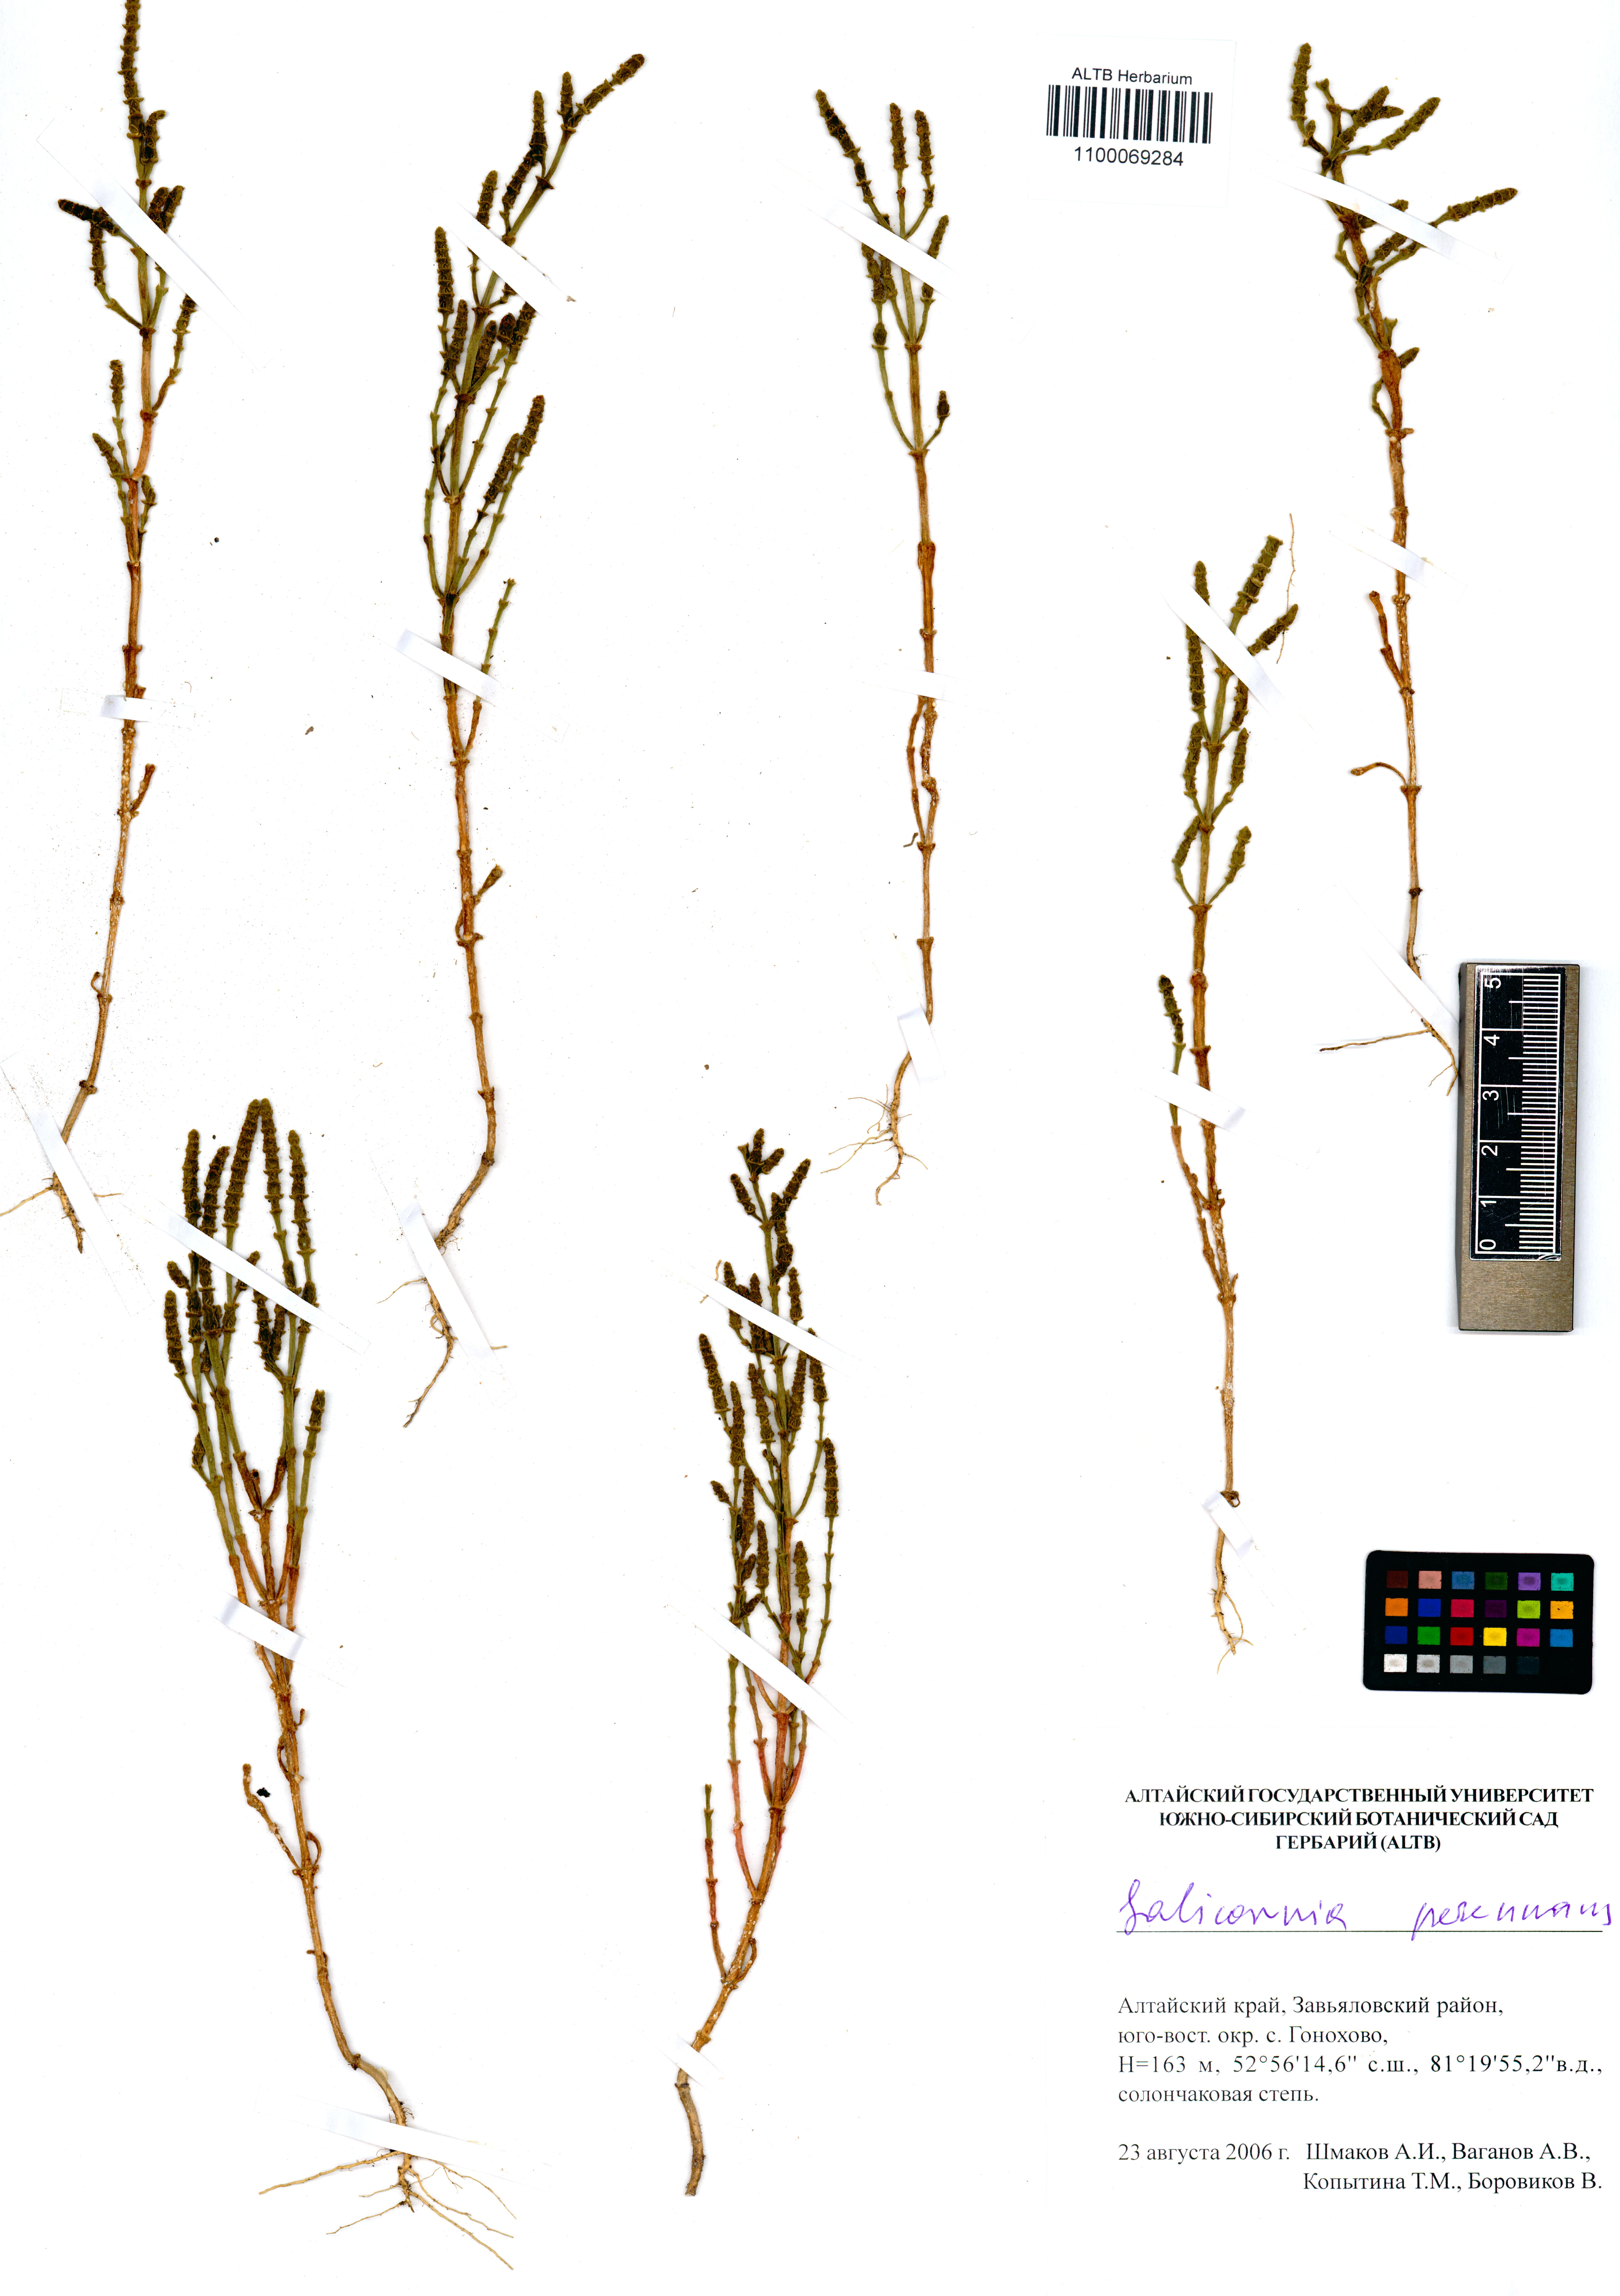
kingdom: Plantae
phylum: Tracheophyta
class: Magnoliopsida
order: Caryophyllales
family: Amaranthaceae
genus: Salicornia
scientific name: Salicornia perennans
